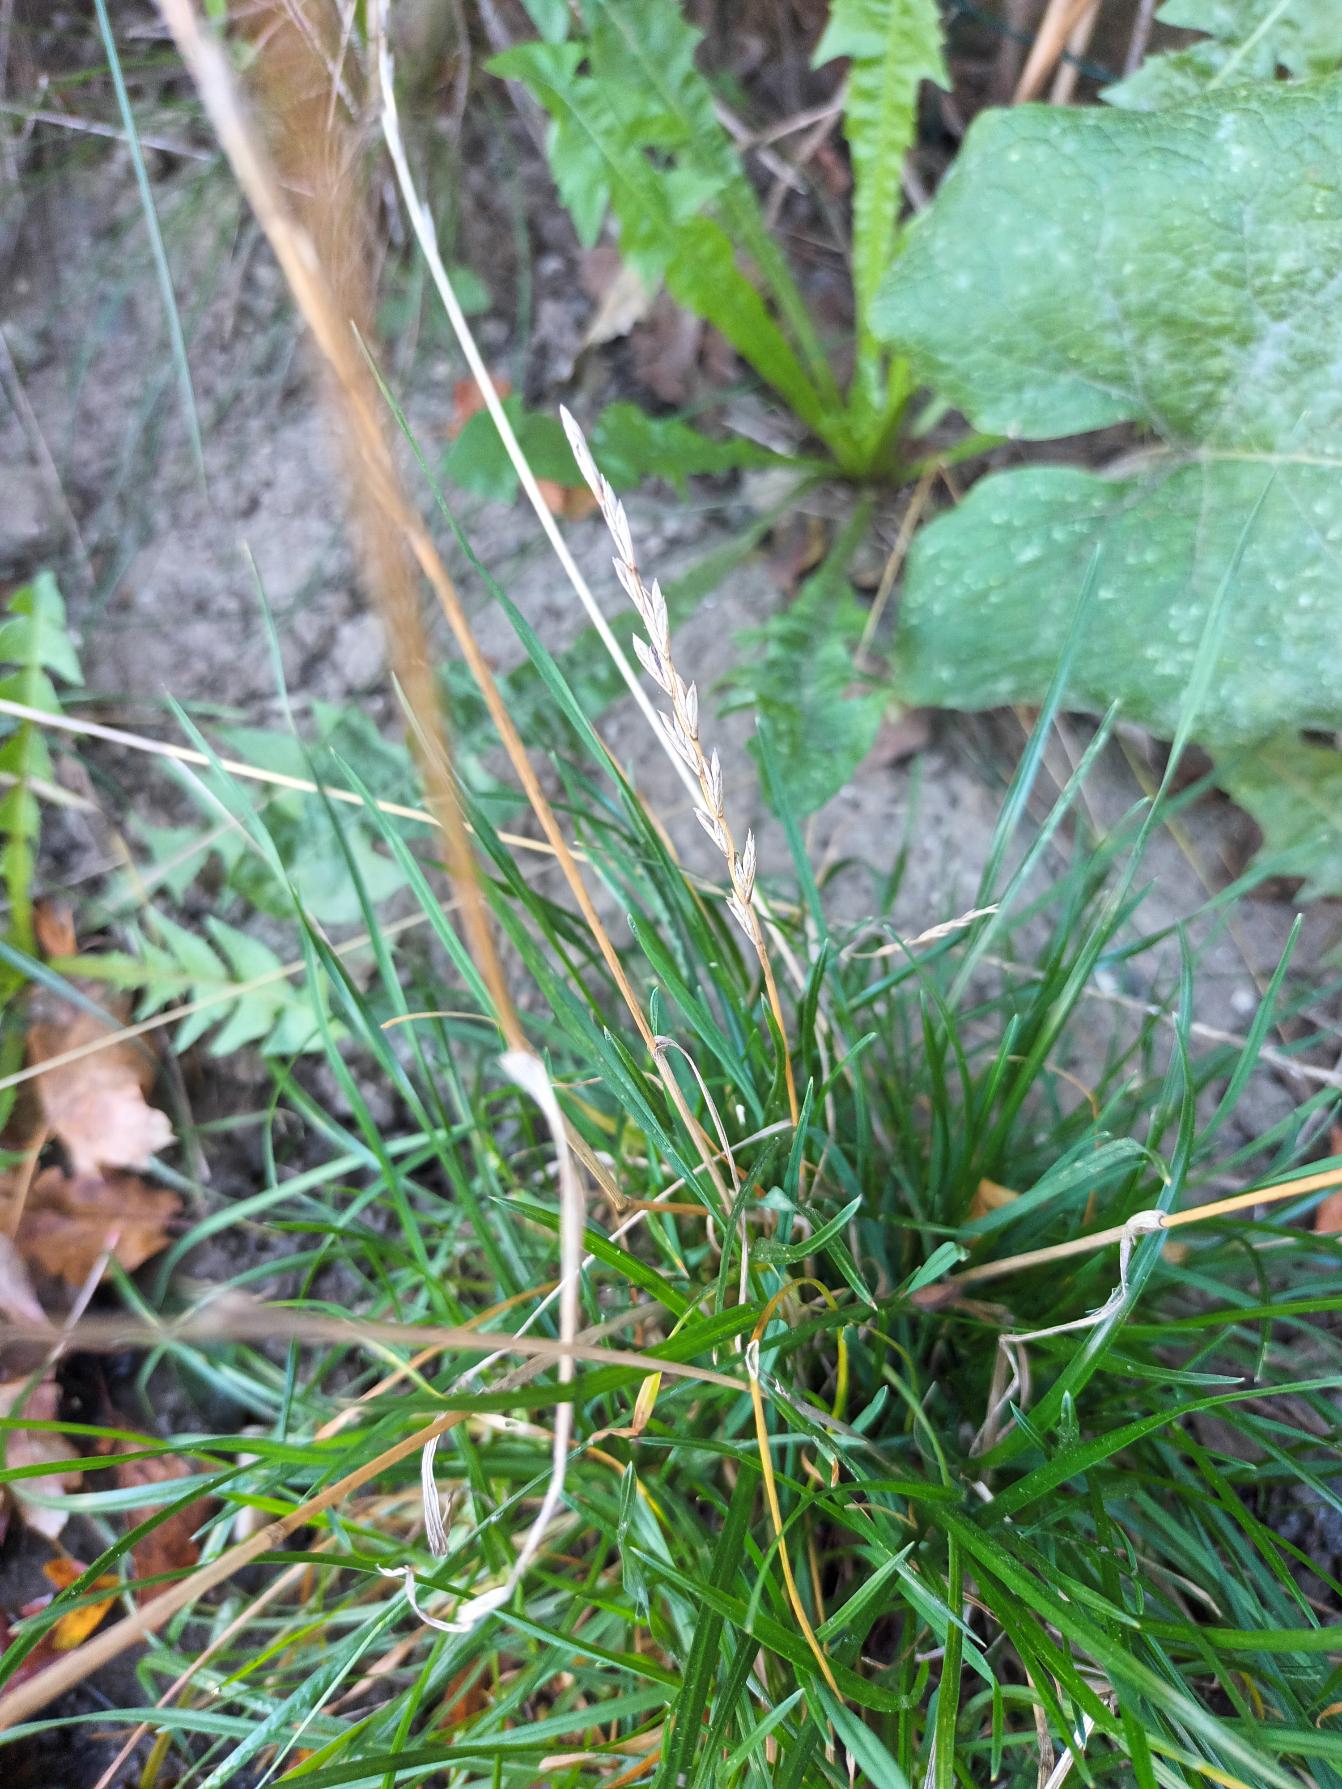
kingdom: Plantae
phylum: Tracheophyta
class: Liliopsida
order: Poales
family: Poaceae
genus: Lolium
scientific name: Lolium perenne
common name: Almindelig rajgræs
